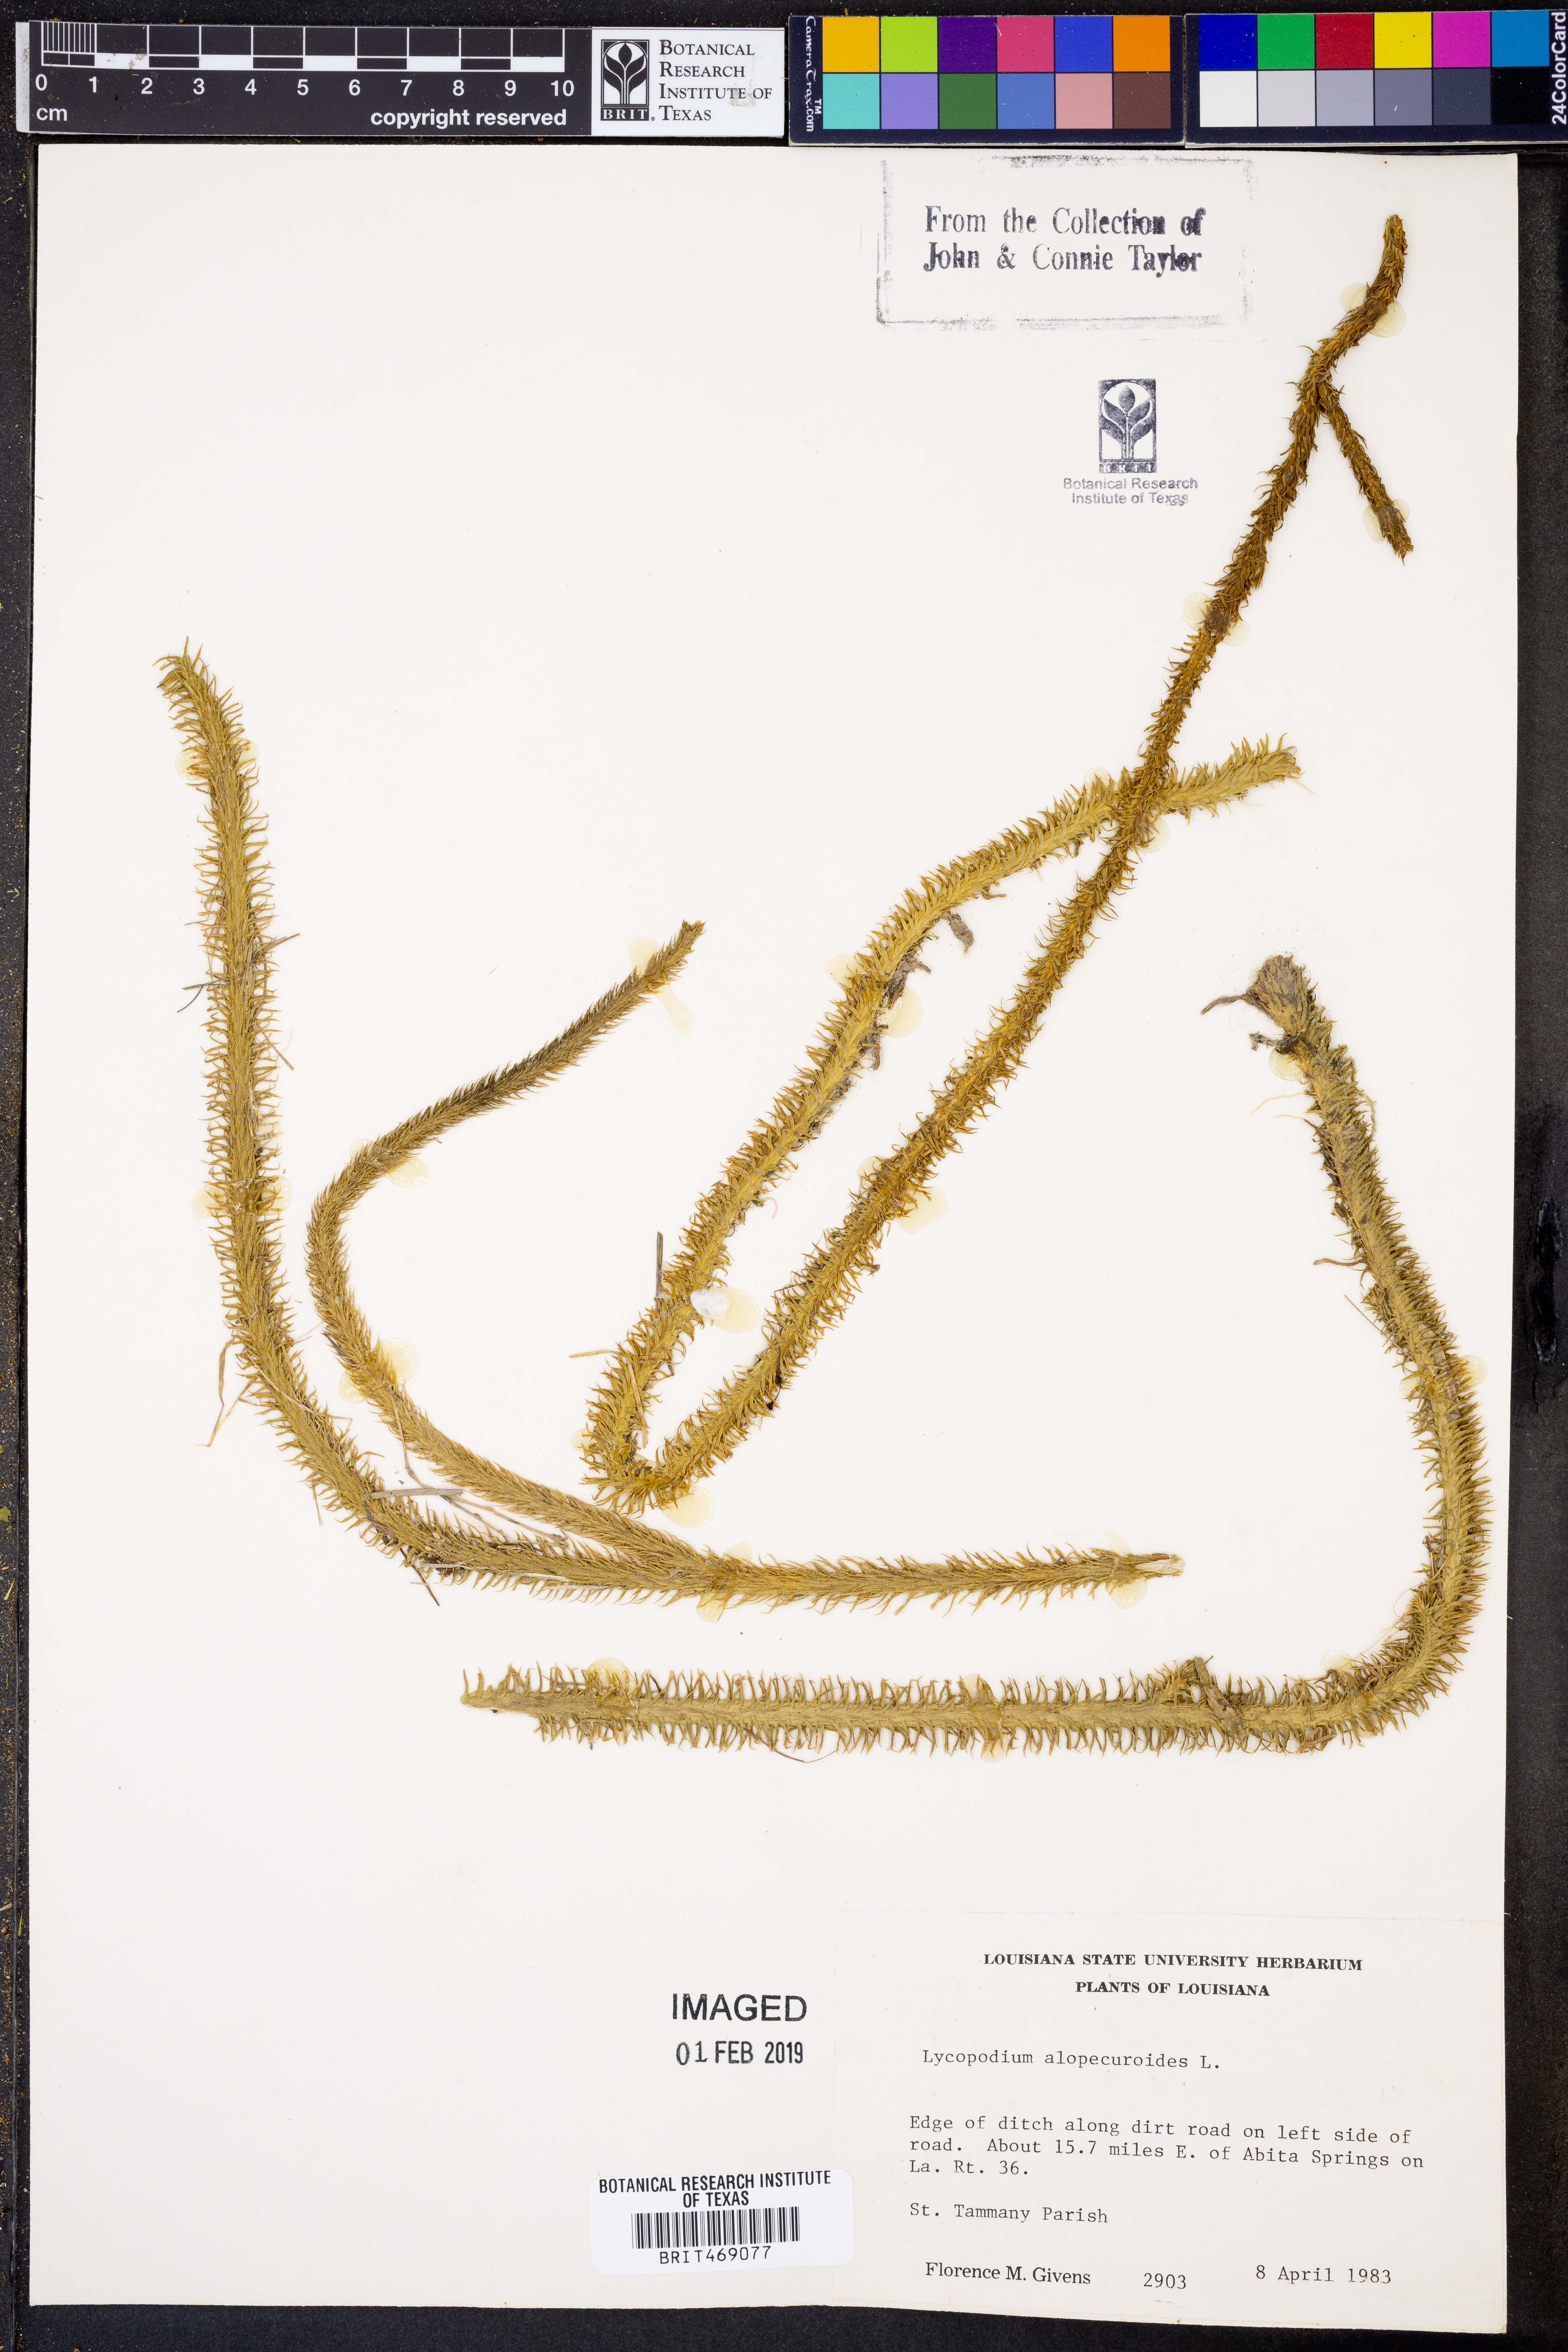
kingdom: Plantae
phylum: Tracheophyta
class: Lycopodiopsida
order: Lycopodiales
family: Lycopodiaceae
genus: Lycopodiella
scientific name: Lycopodiella alopecuroides
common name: Foxtail clubmoss
